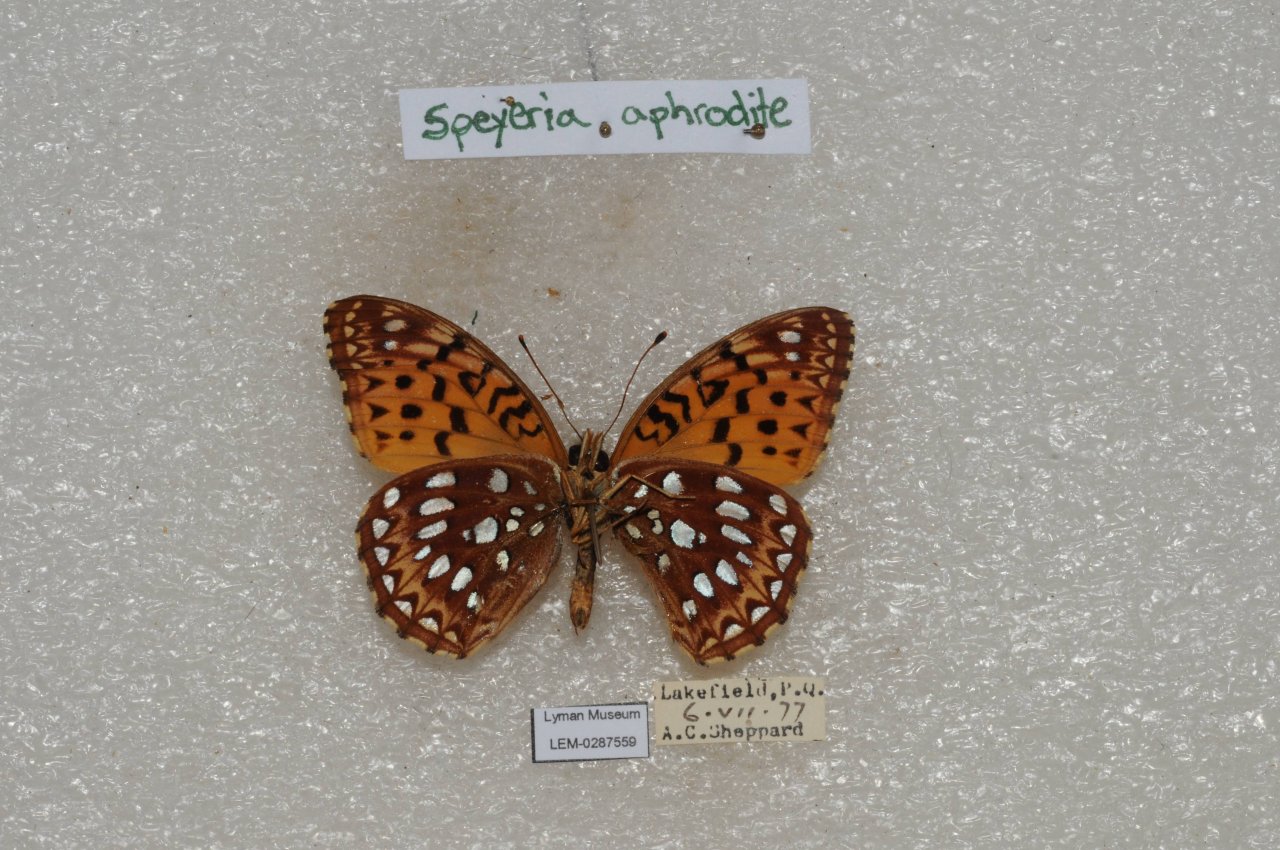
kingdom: Animalia
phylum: Arthropoda
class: Insecta
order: Lepidoptera
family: Nymphalidae
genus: Speyeria
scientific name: Speyeria aphrodite
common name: Aphrodite Fritillary
